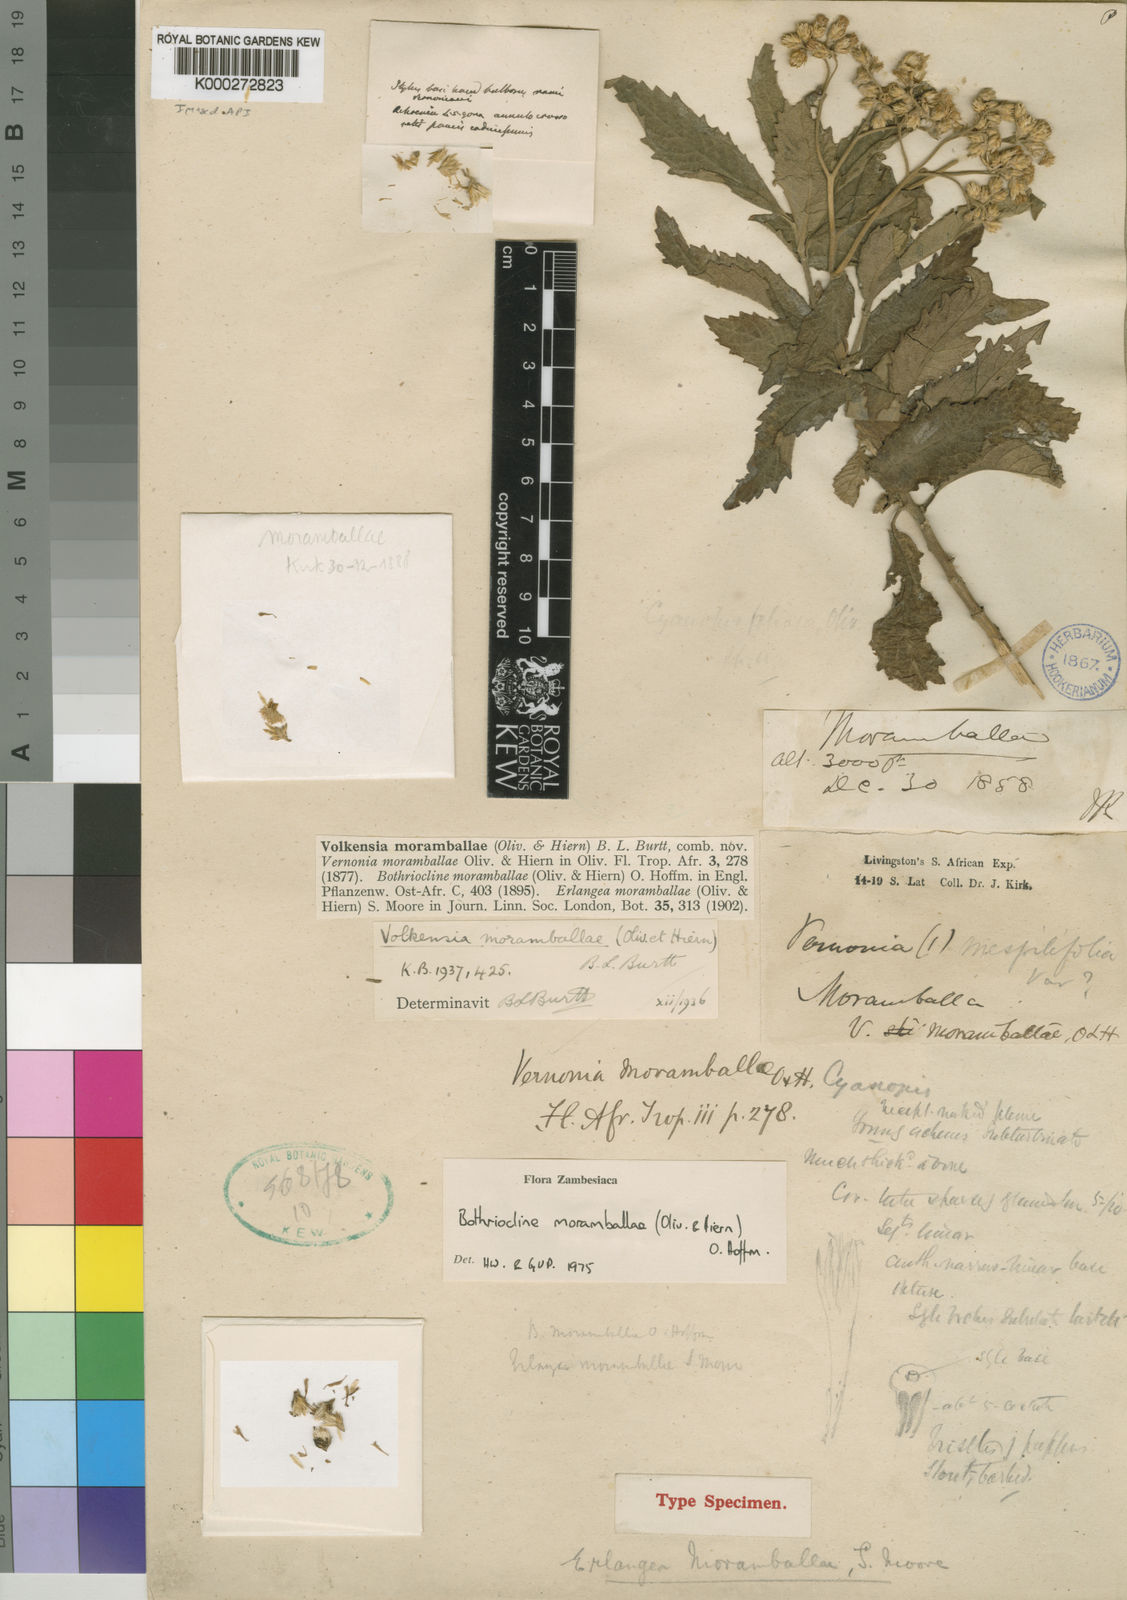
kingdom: Plantae
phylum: Tracheophyta
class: Magnoliopsida
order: Asterales
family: Asteraceae
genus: Bothriocline
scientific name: Bothriocline moramballae
